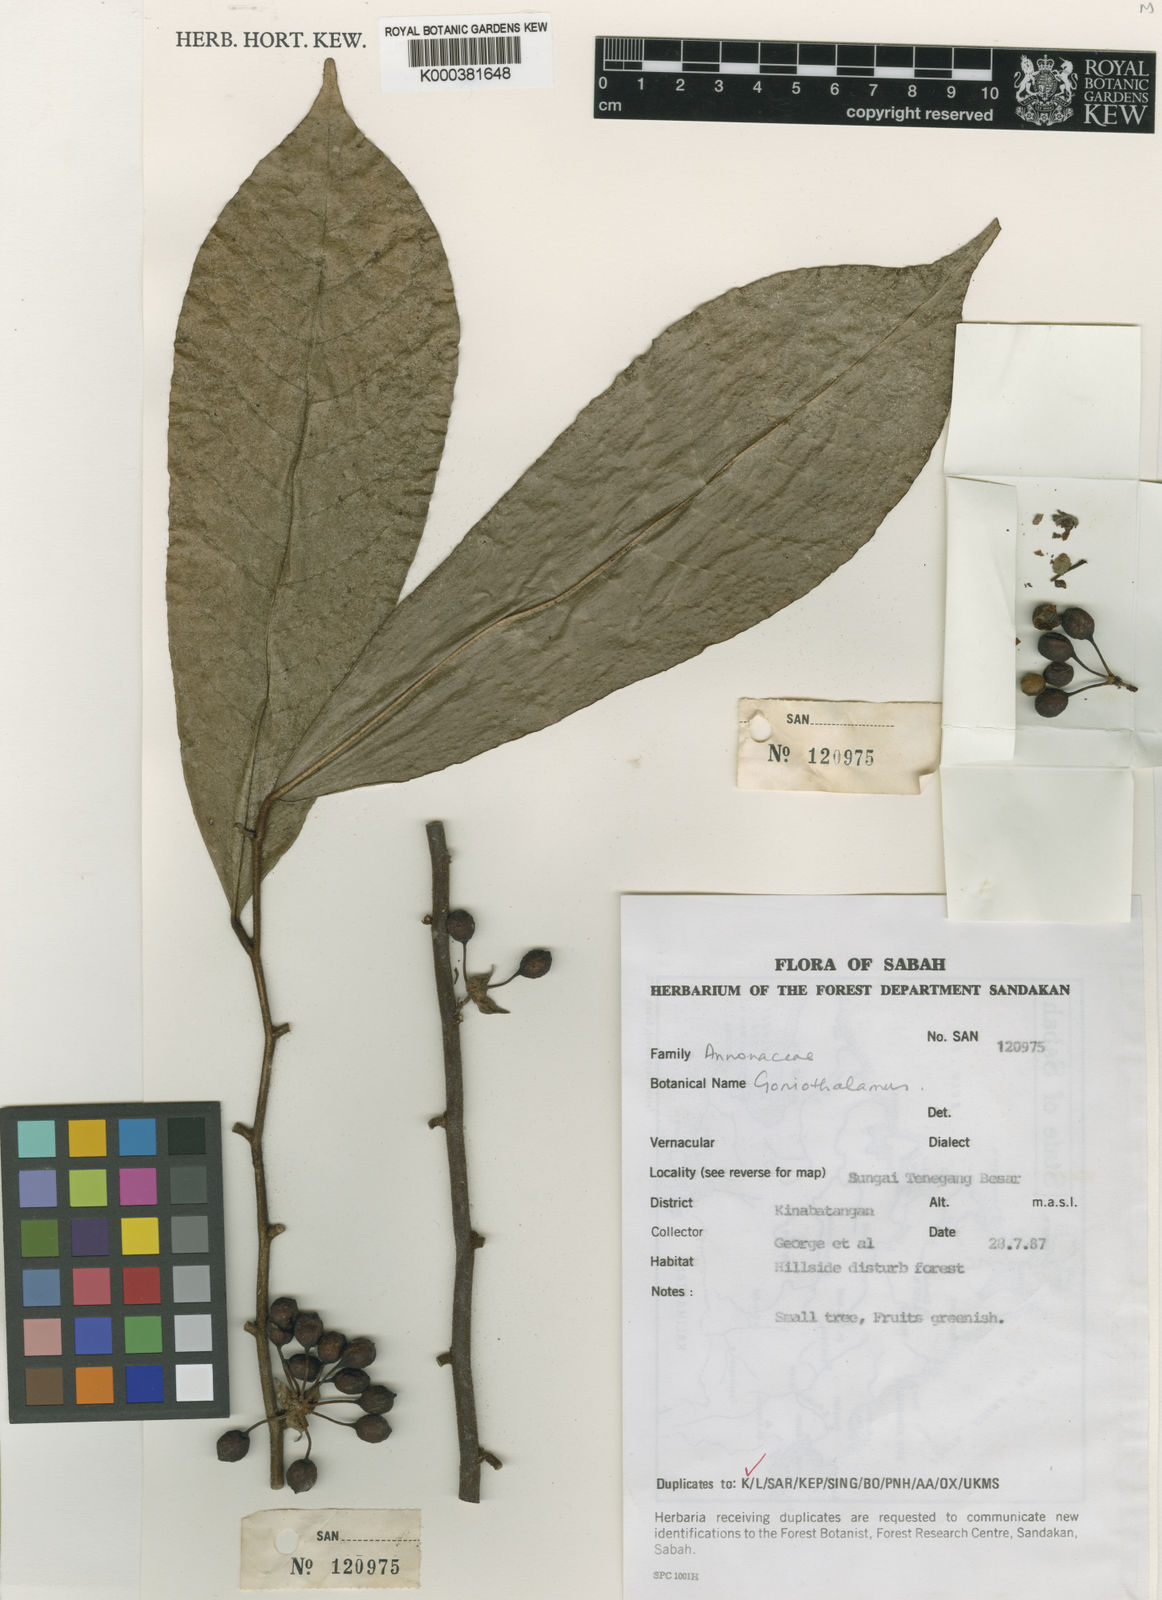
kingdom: Plantae
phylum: Tracheophyta
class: Magnoliopsida
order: Magnoliales
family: Annonaceae
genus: Goniothalamus
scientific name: Goniothalamus
